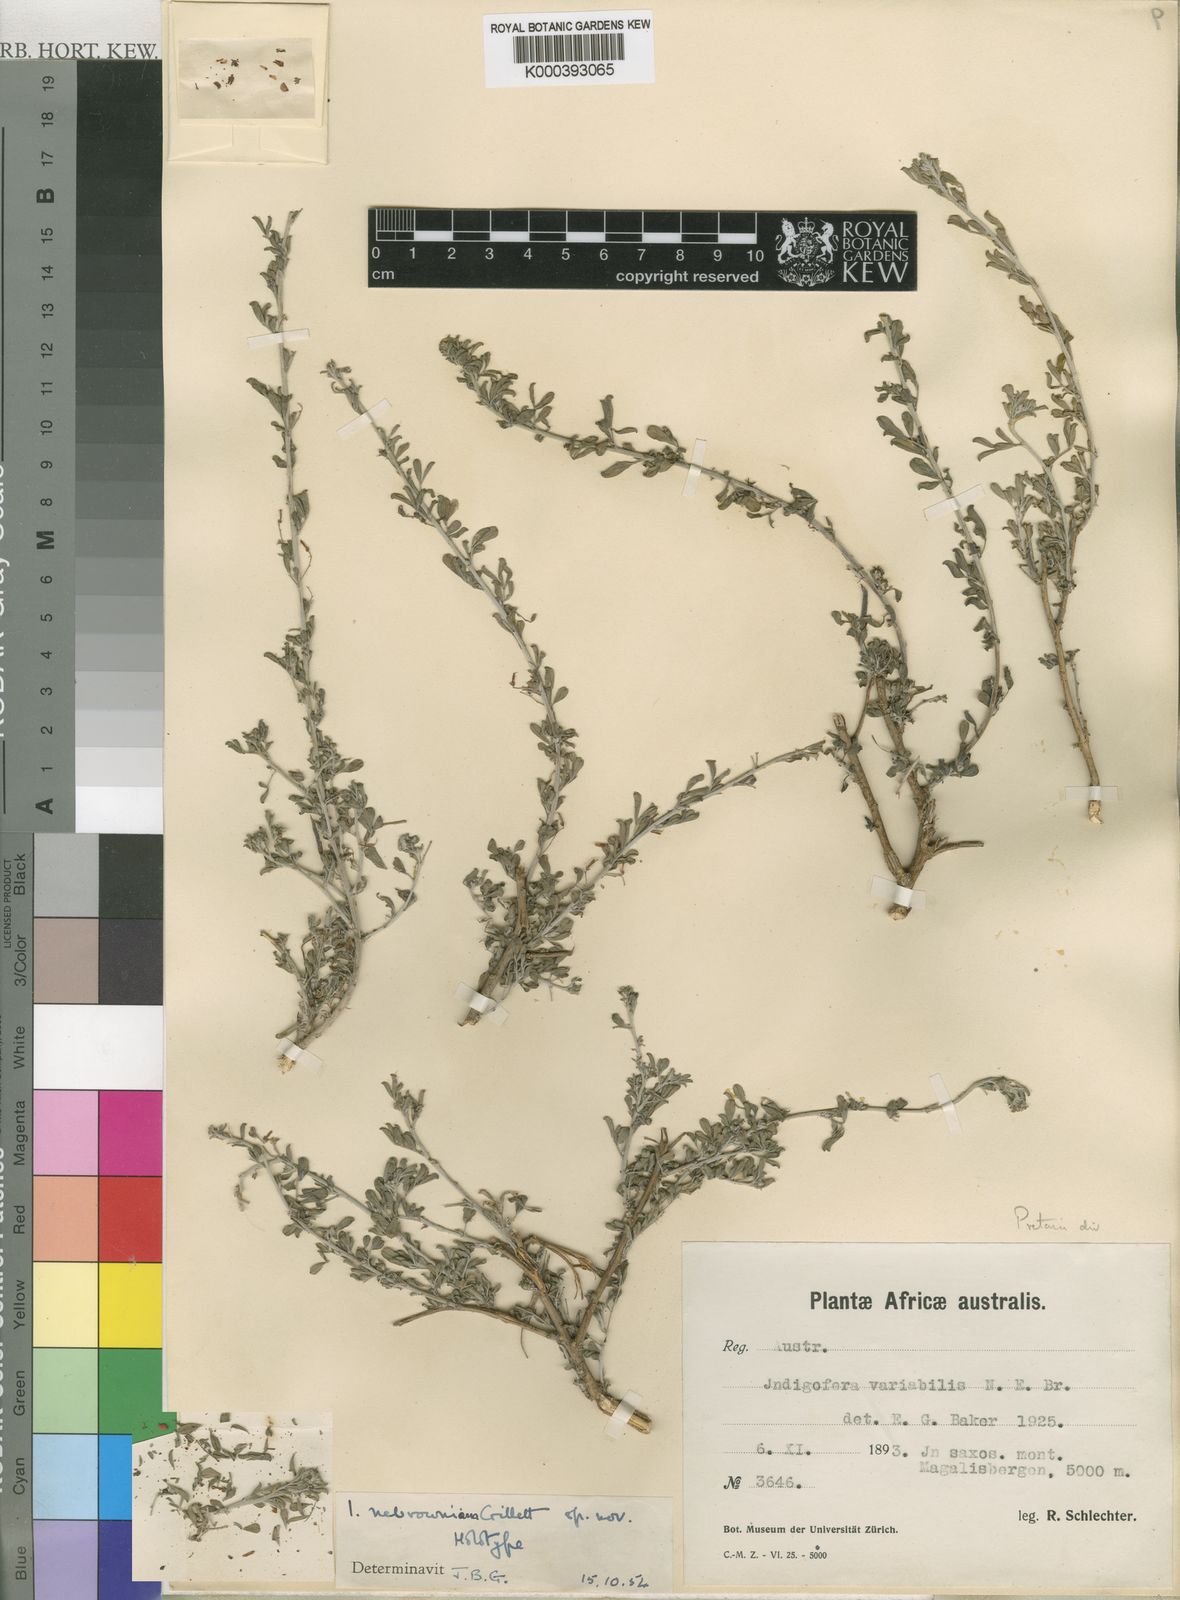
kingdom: Plantae
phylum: Tracheophyta
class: Magnoliopsida
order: Fabales
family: Fabaceae
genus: Indigofera
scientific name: Indigofera nebrowniana
